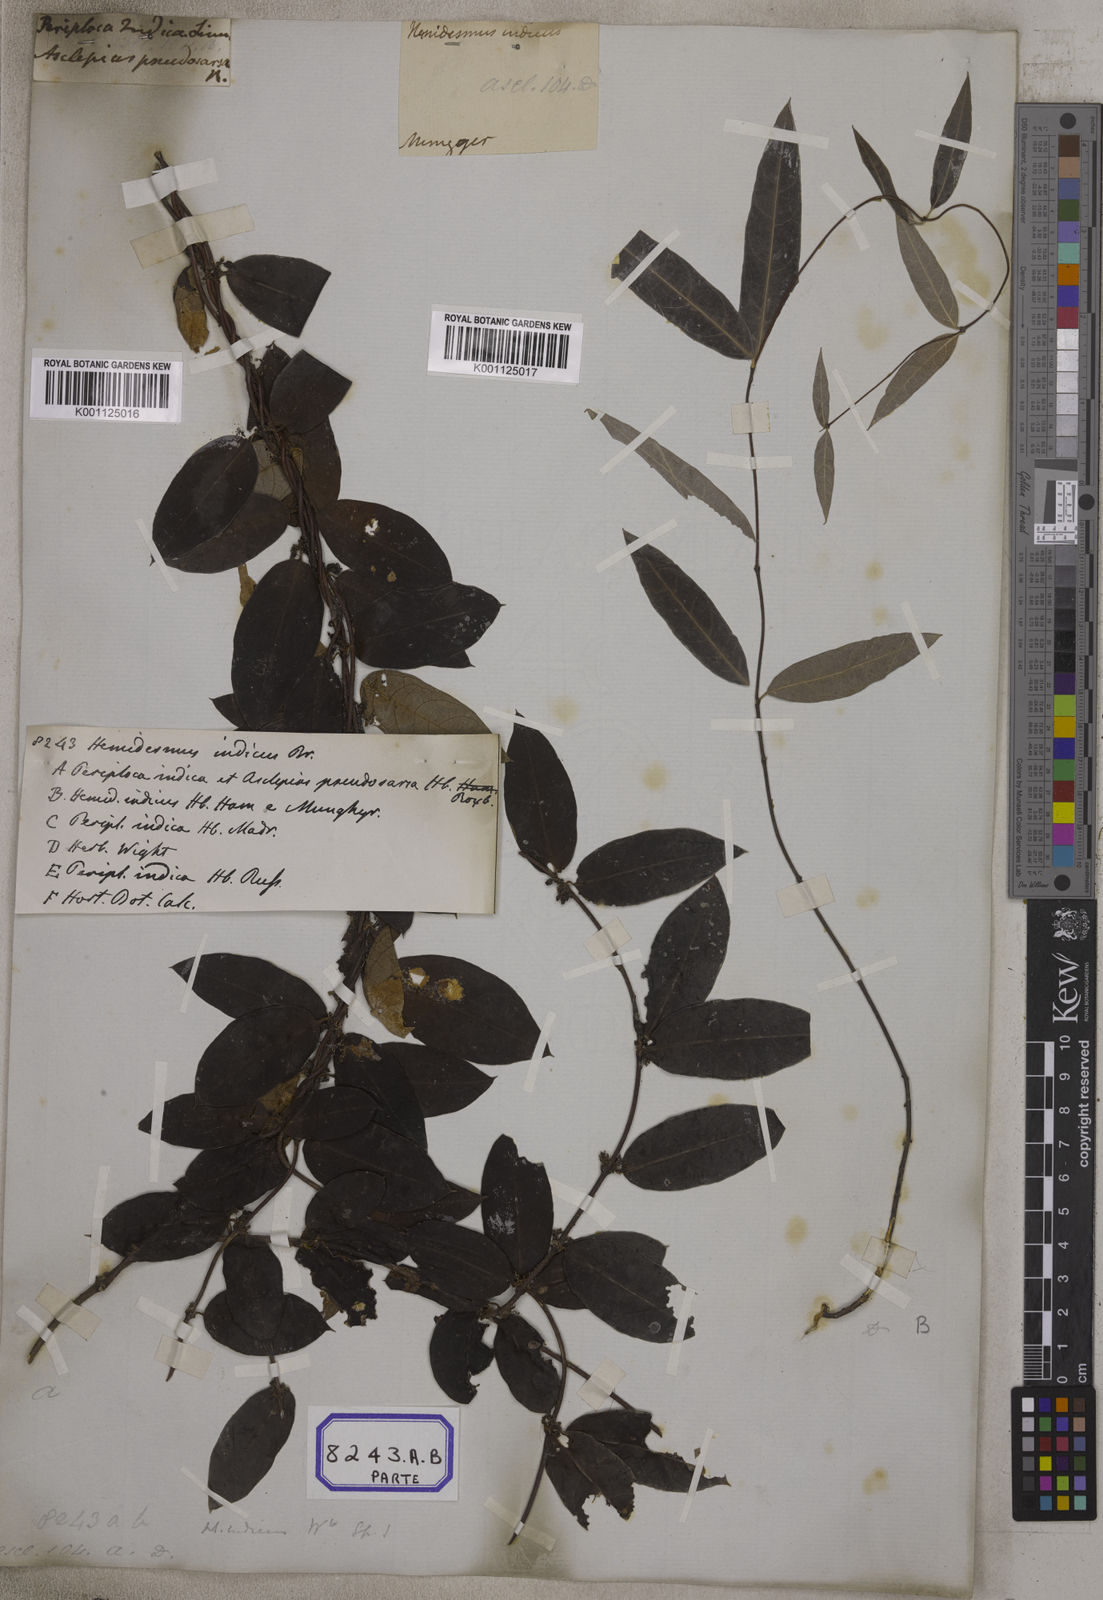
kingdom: Plantae
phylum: Tracheophyta
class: Magnoliopsida
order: Gentianales
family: Apocynaceae
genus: Hemidesmus
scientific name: Hemidesmus indicus
